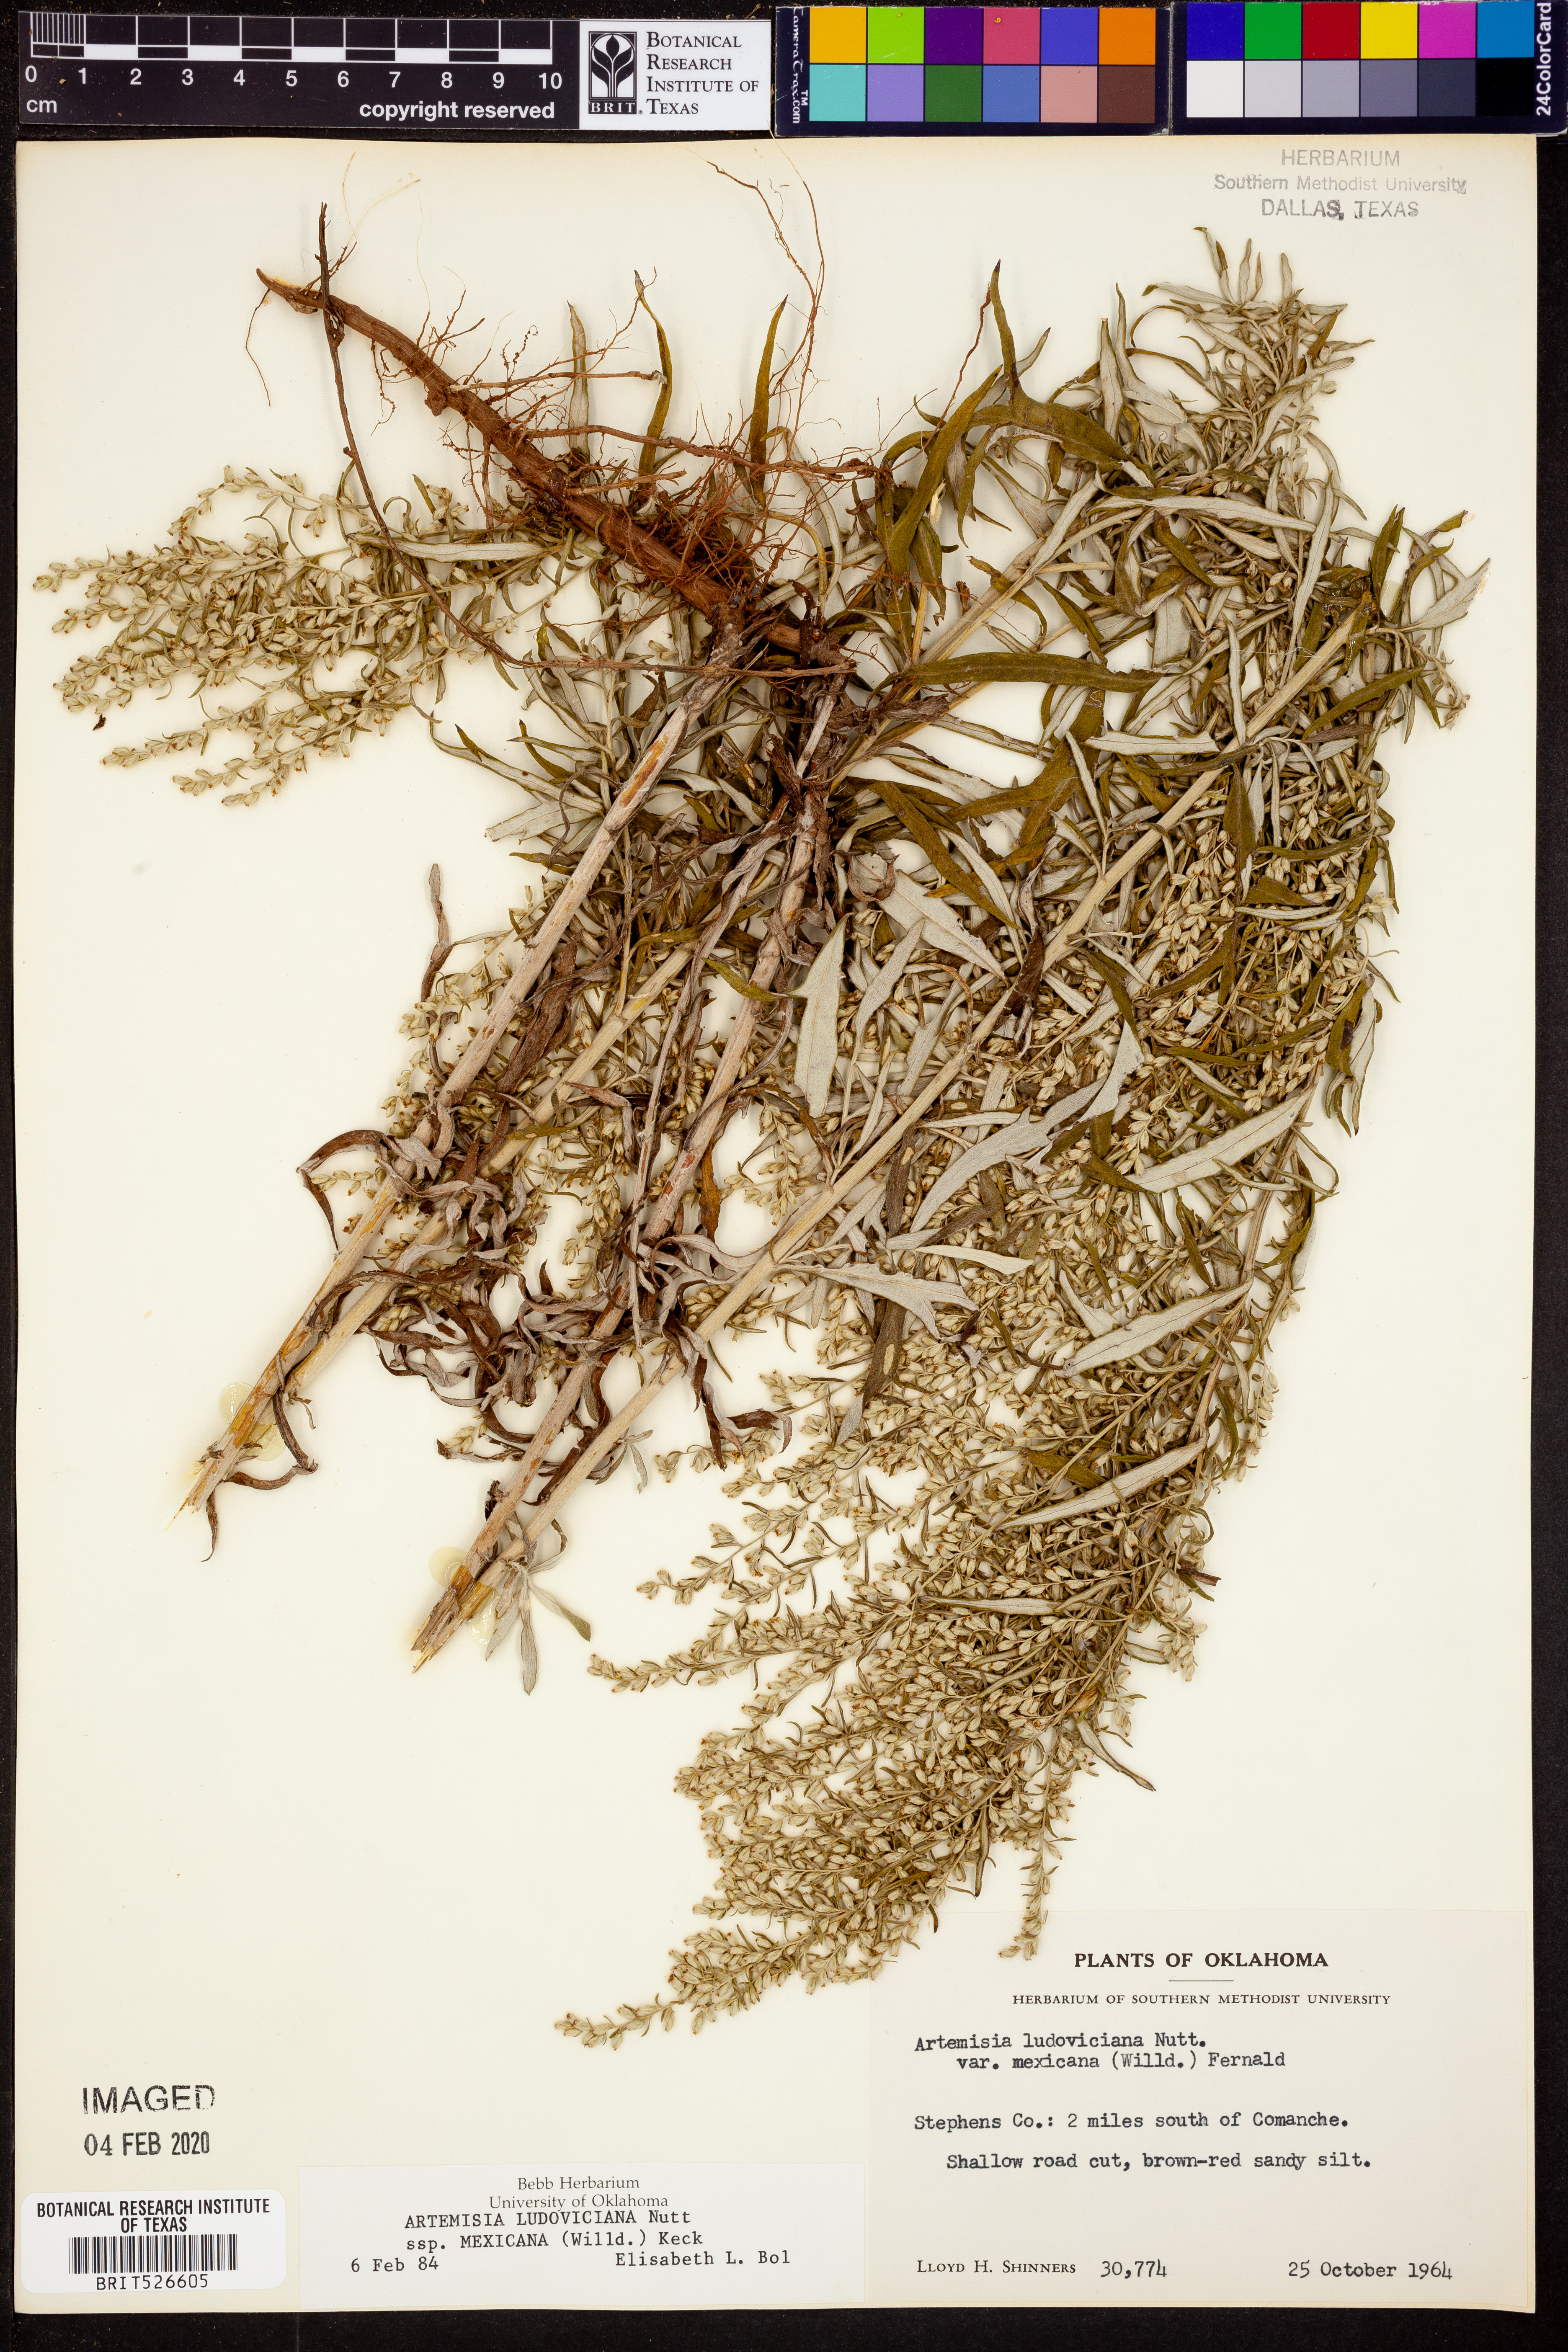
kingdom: Plantae
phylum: Tracheophyta
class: Magnoliopsida
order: Asterales
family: Asteraceae
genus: Artemisia
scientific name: Artemisia ludoviciana
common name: Western mugwort
